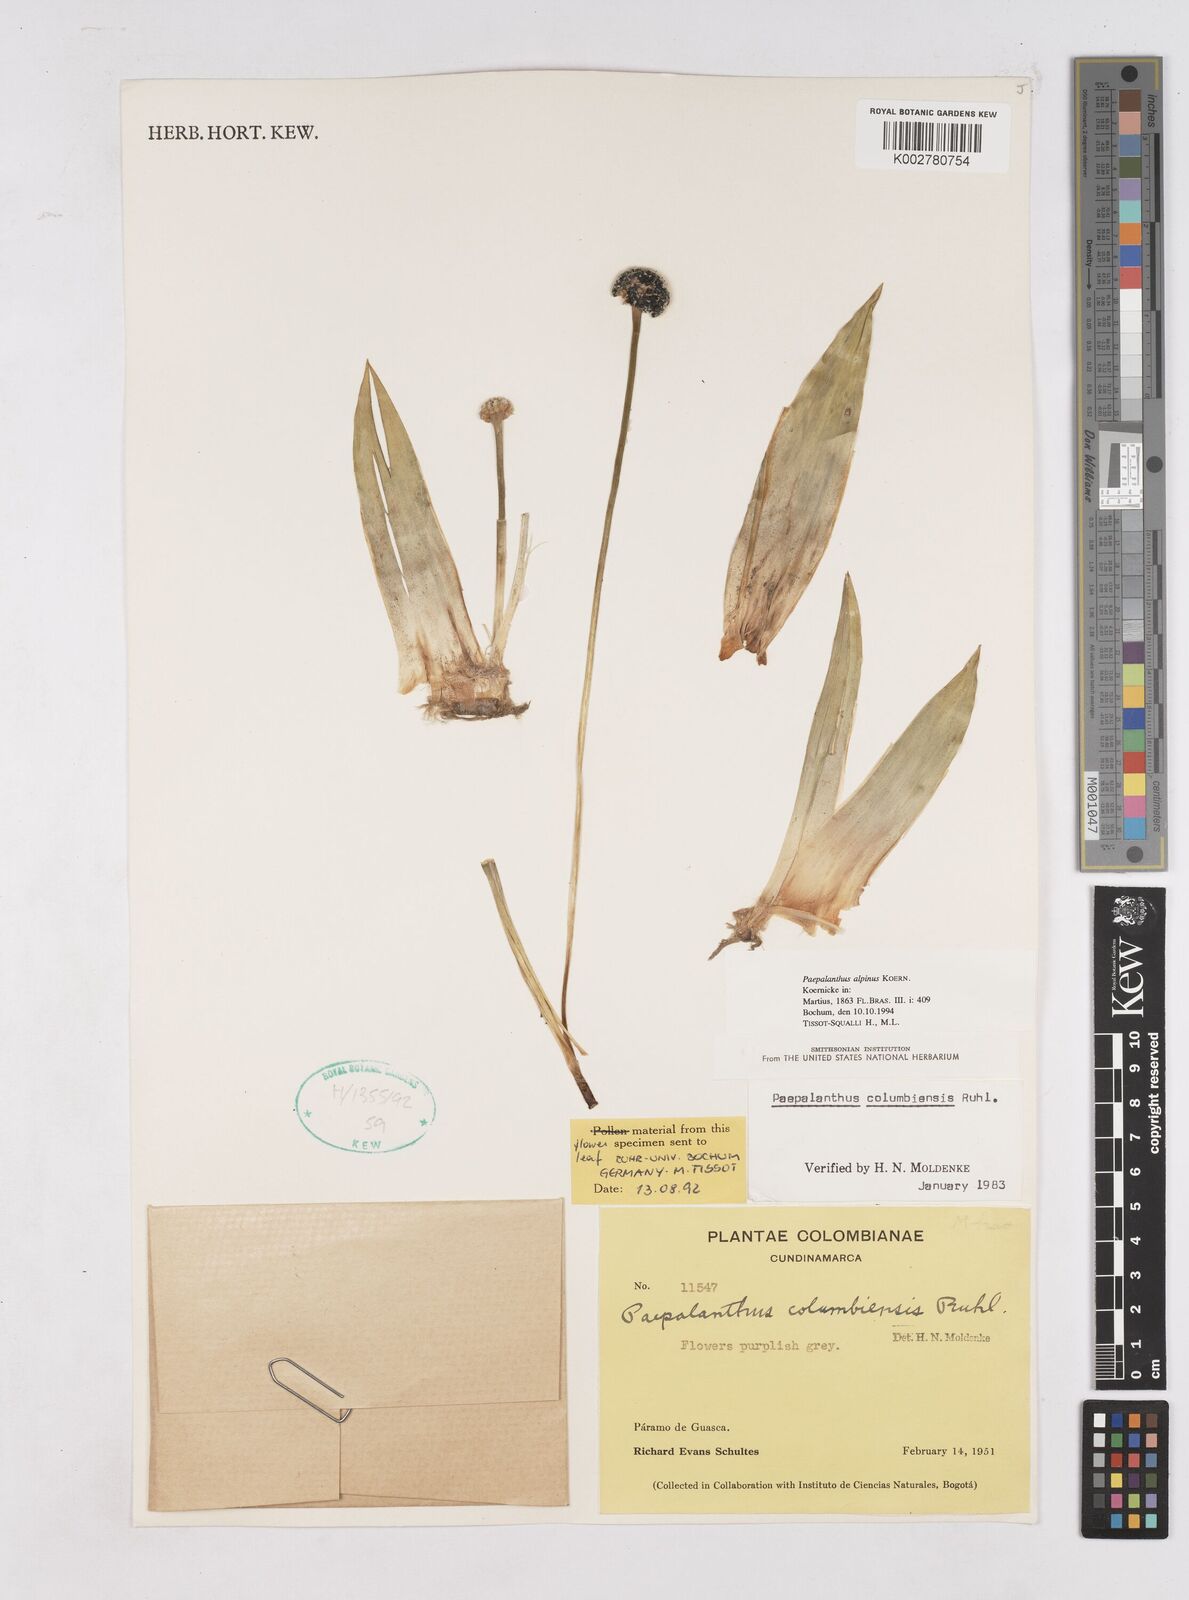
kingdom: Plantae
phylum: Tracheophyta
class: Liliopsida
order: Poales
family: Eriocaulaceae
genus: Paepalanthus
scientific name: Paepalanthus alpinus
